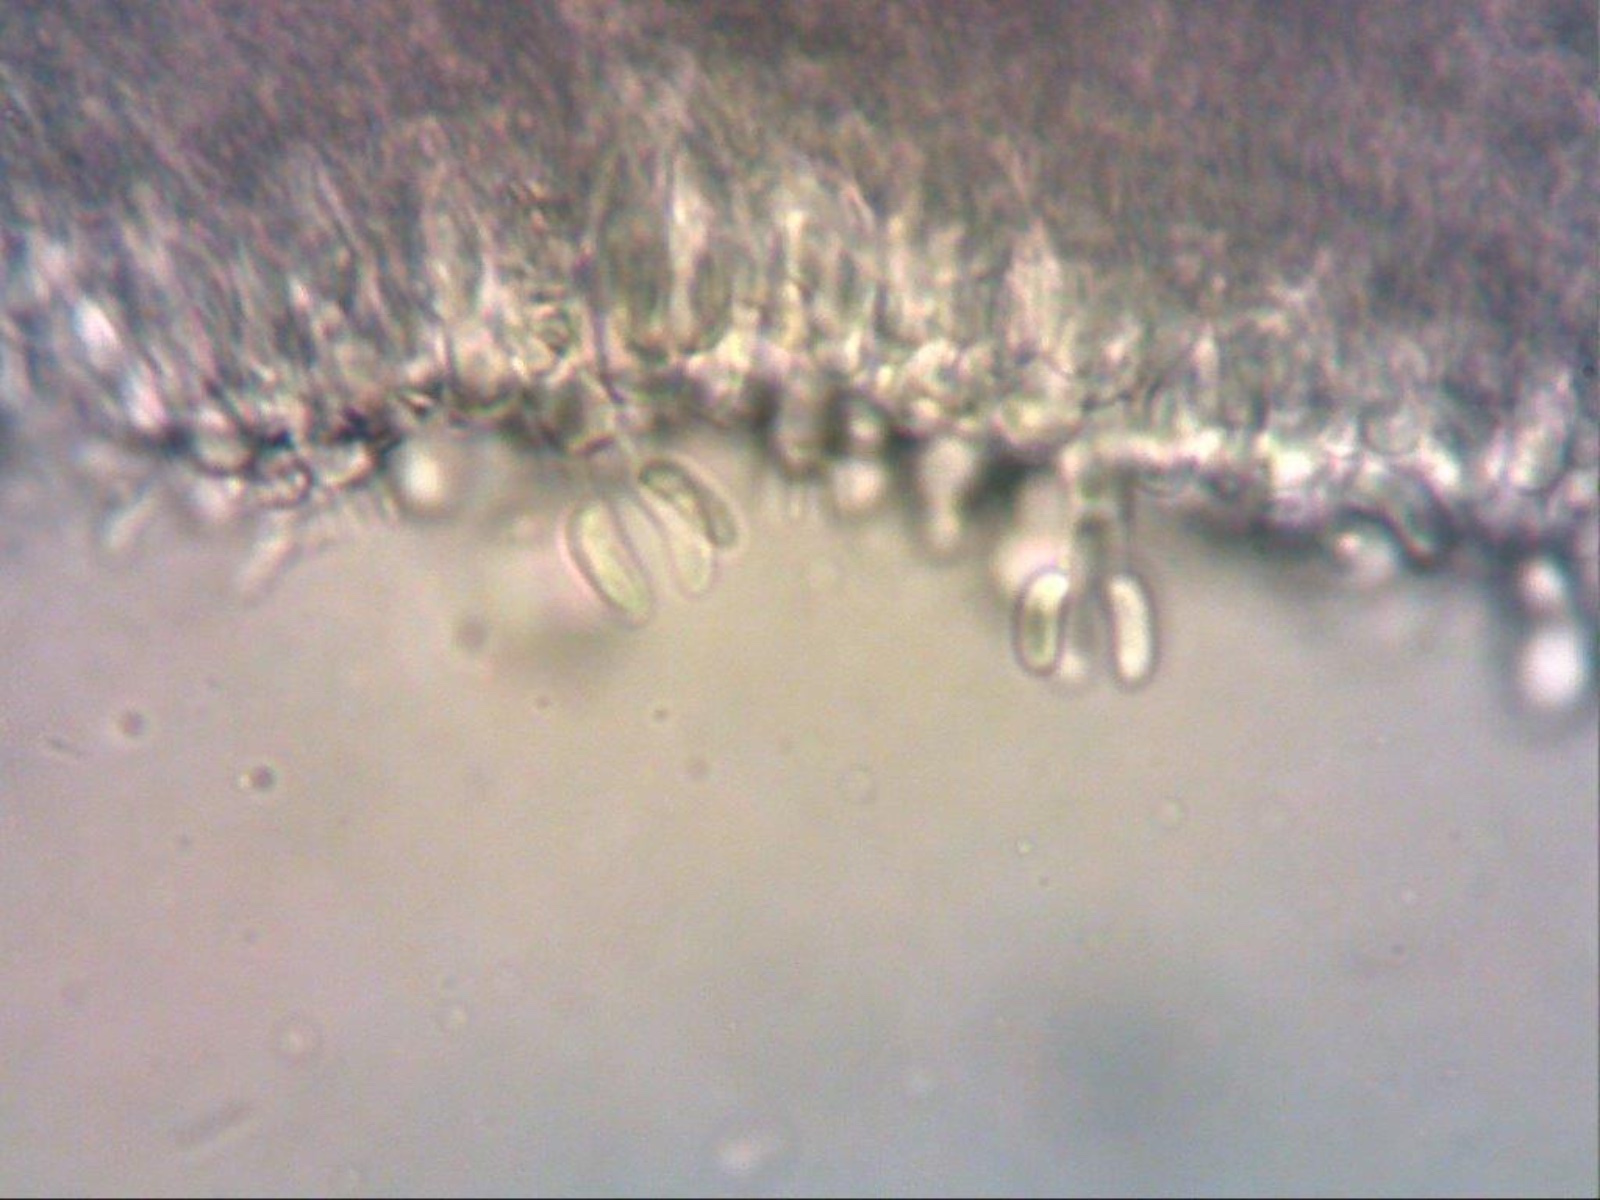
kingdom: Fungi
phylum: Basidiomycota
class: Agaricomycetes
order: Hymenochaetales
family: Schizoporaceae
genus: Xylodon
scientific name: Xylodon radula
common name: grovtandet kalkskind
